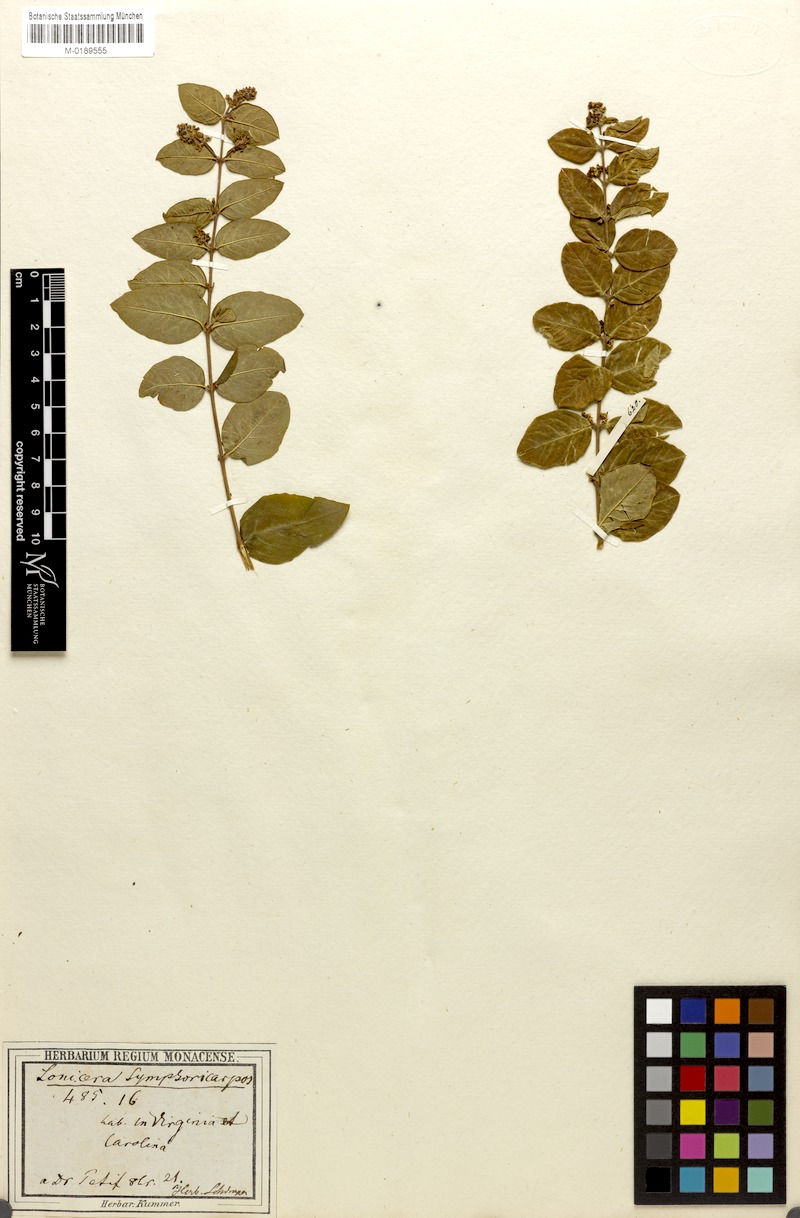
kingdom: Plantae
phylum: Tracheophyta
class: Magnoliopsida
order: Dipsacales
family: Caprifoliaceae
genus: Symphoricarpos
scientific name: Symphoricarpos orbiculatus
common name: Coralberry
